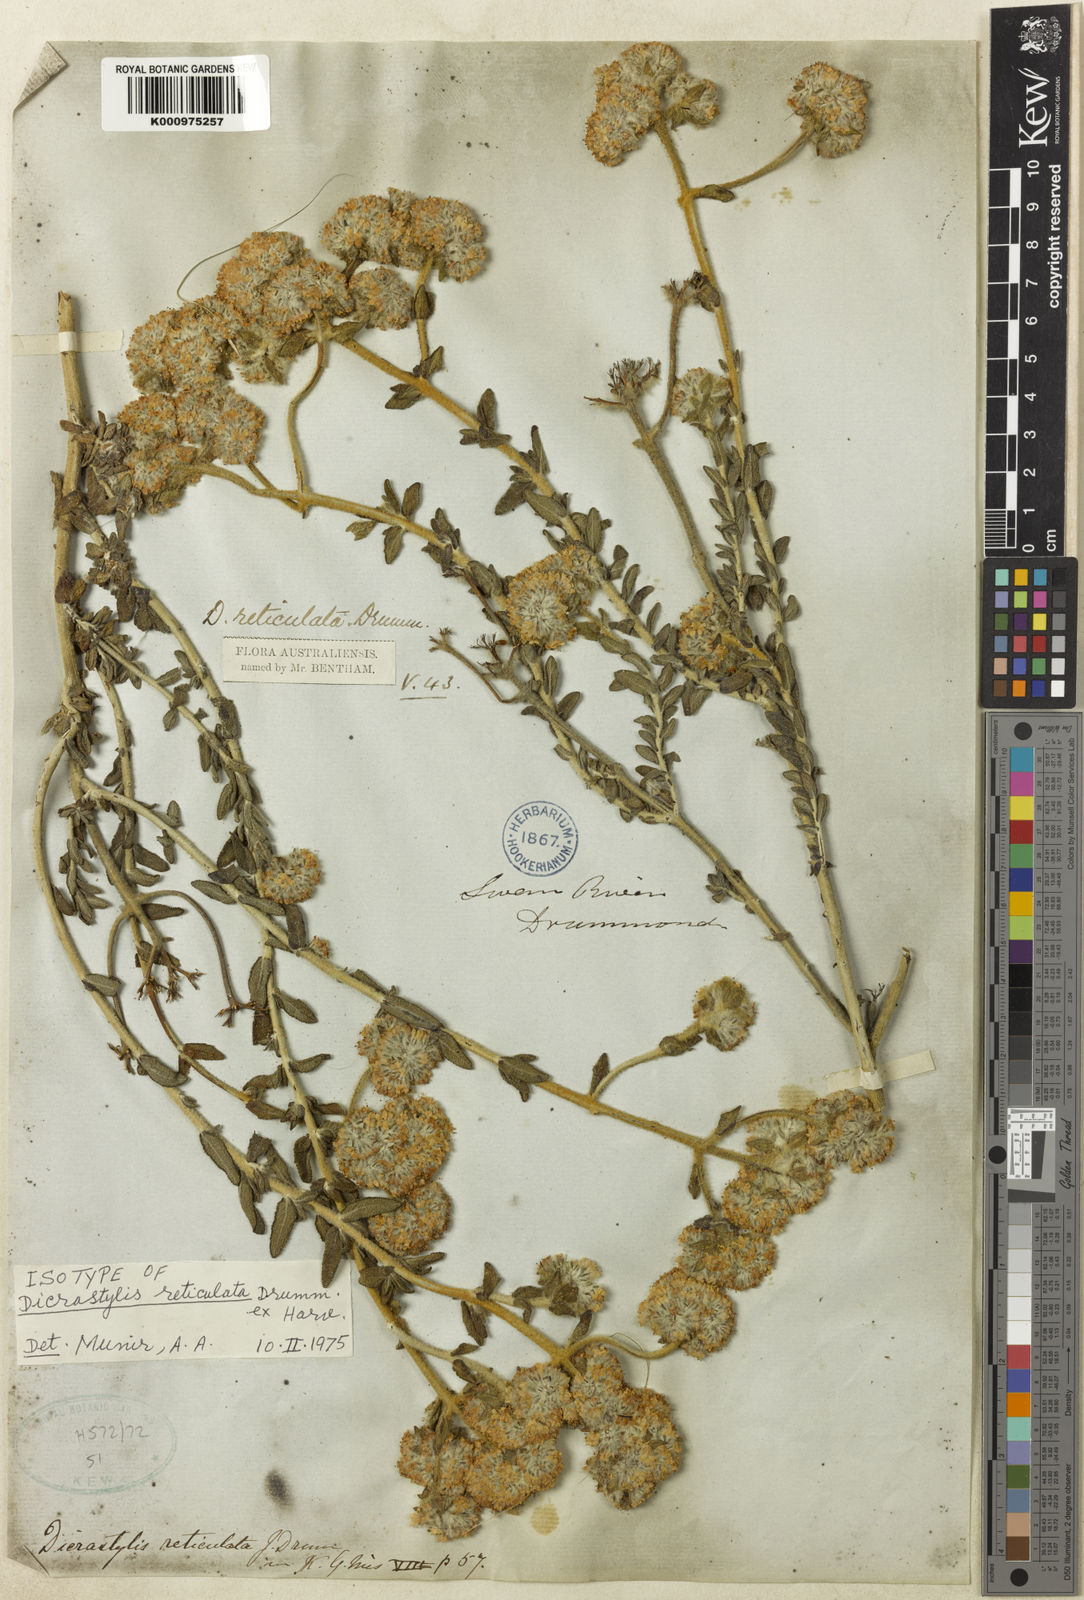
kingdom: Plantae
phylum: Tracheophyta
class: Magnoliopsida
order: Lamiales
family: Lamiaceae
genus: Dicrastylis
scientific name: Dicrastylis reticulata
